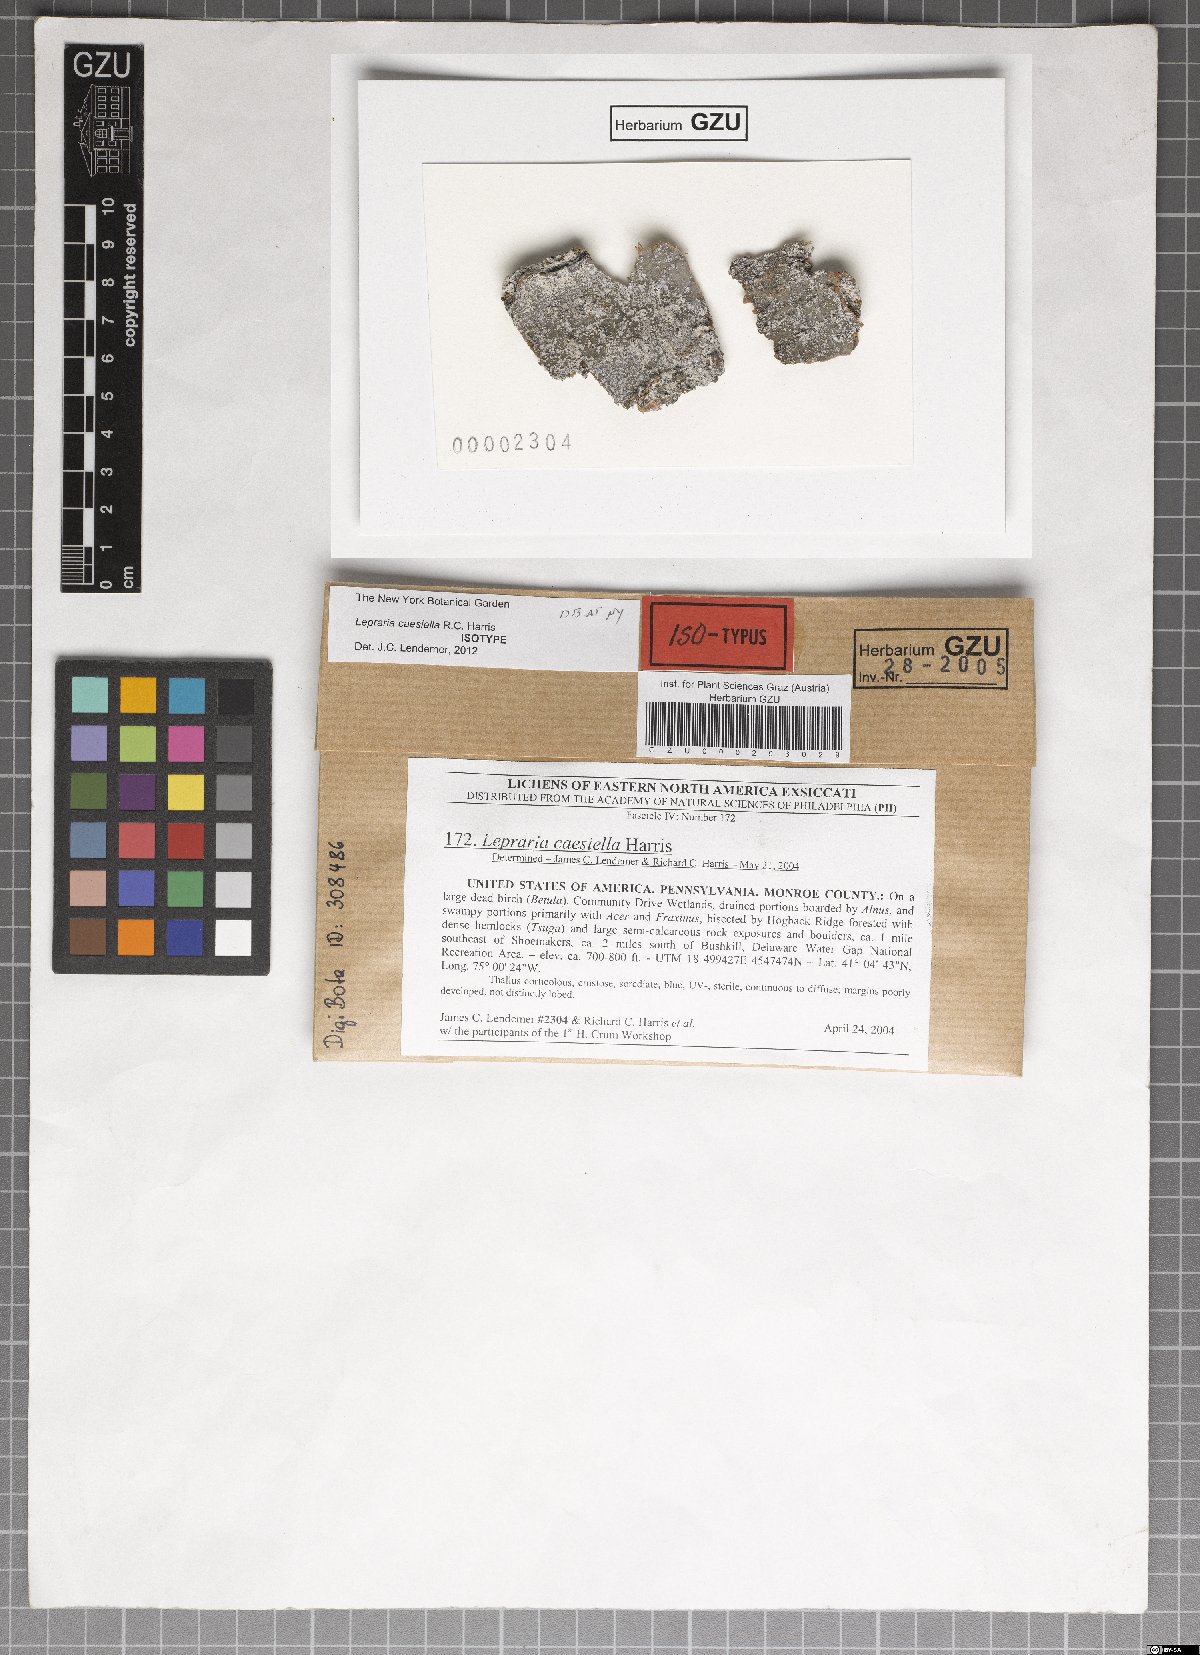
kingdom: Fungi
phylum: Ascomycota
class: Lecanoromycetes
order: Lecanorales
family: Stereocaulaceae
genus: Lepraria
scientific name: Lepraria caesiella
